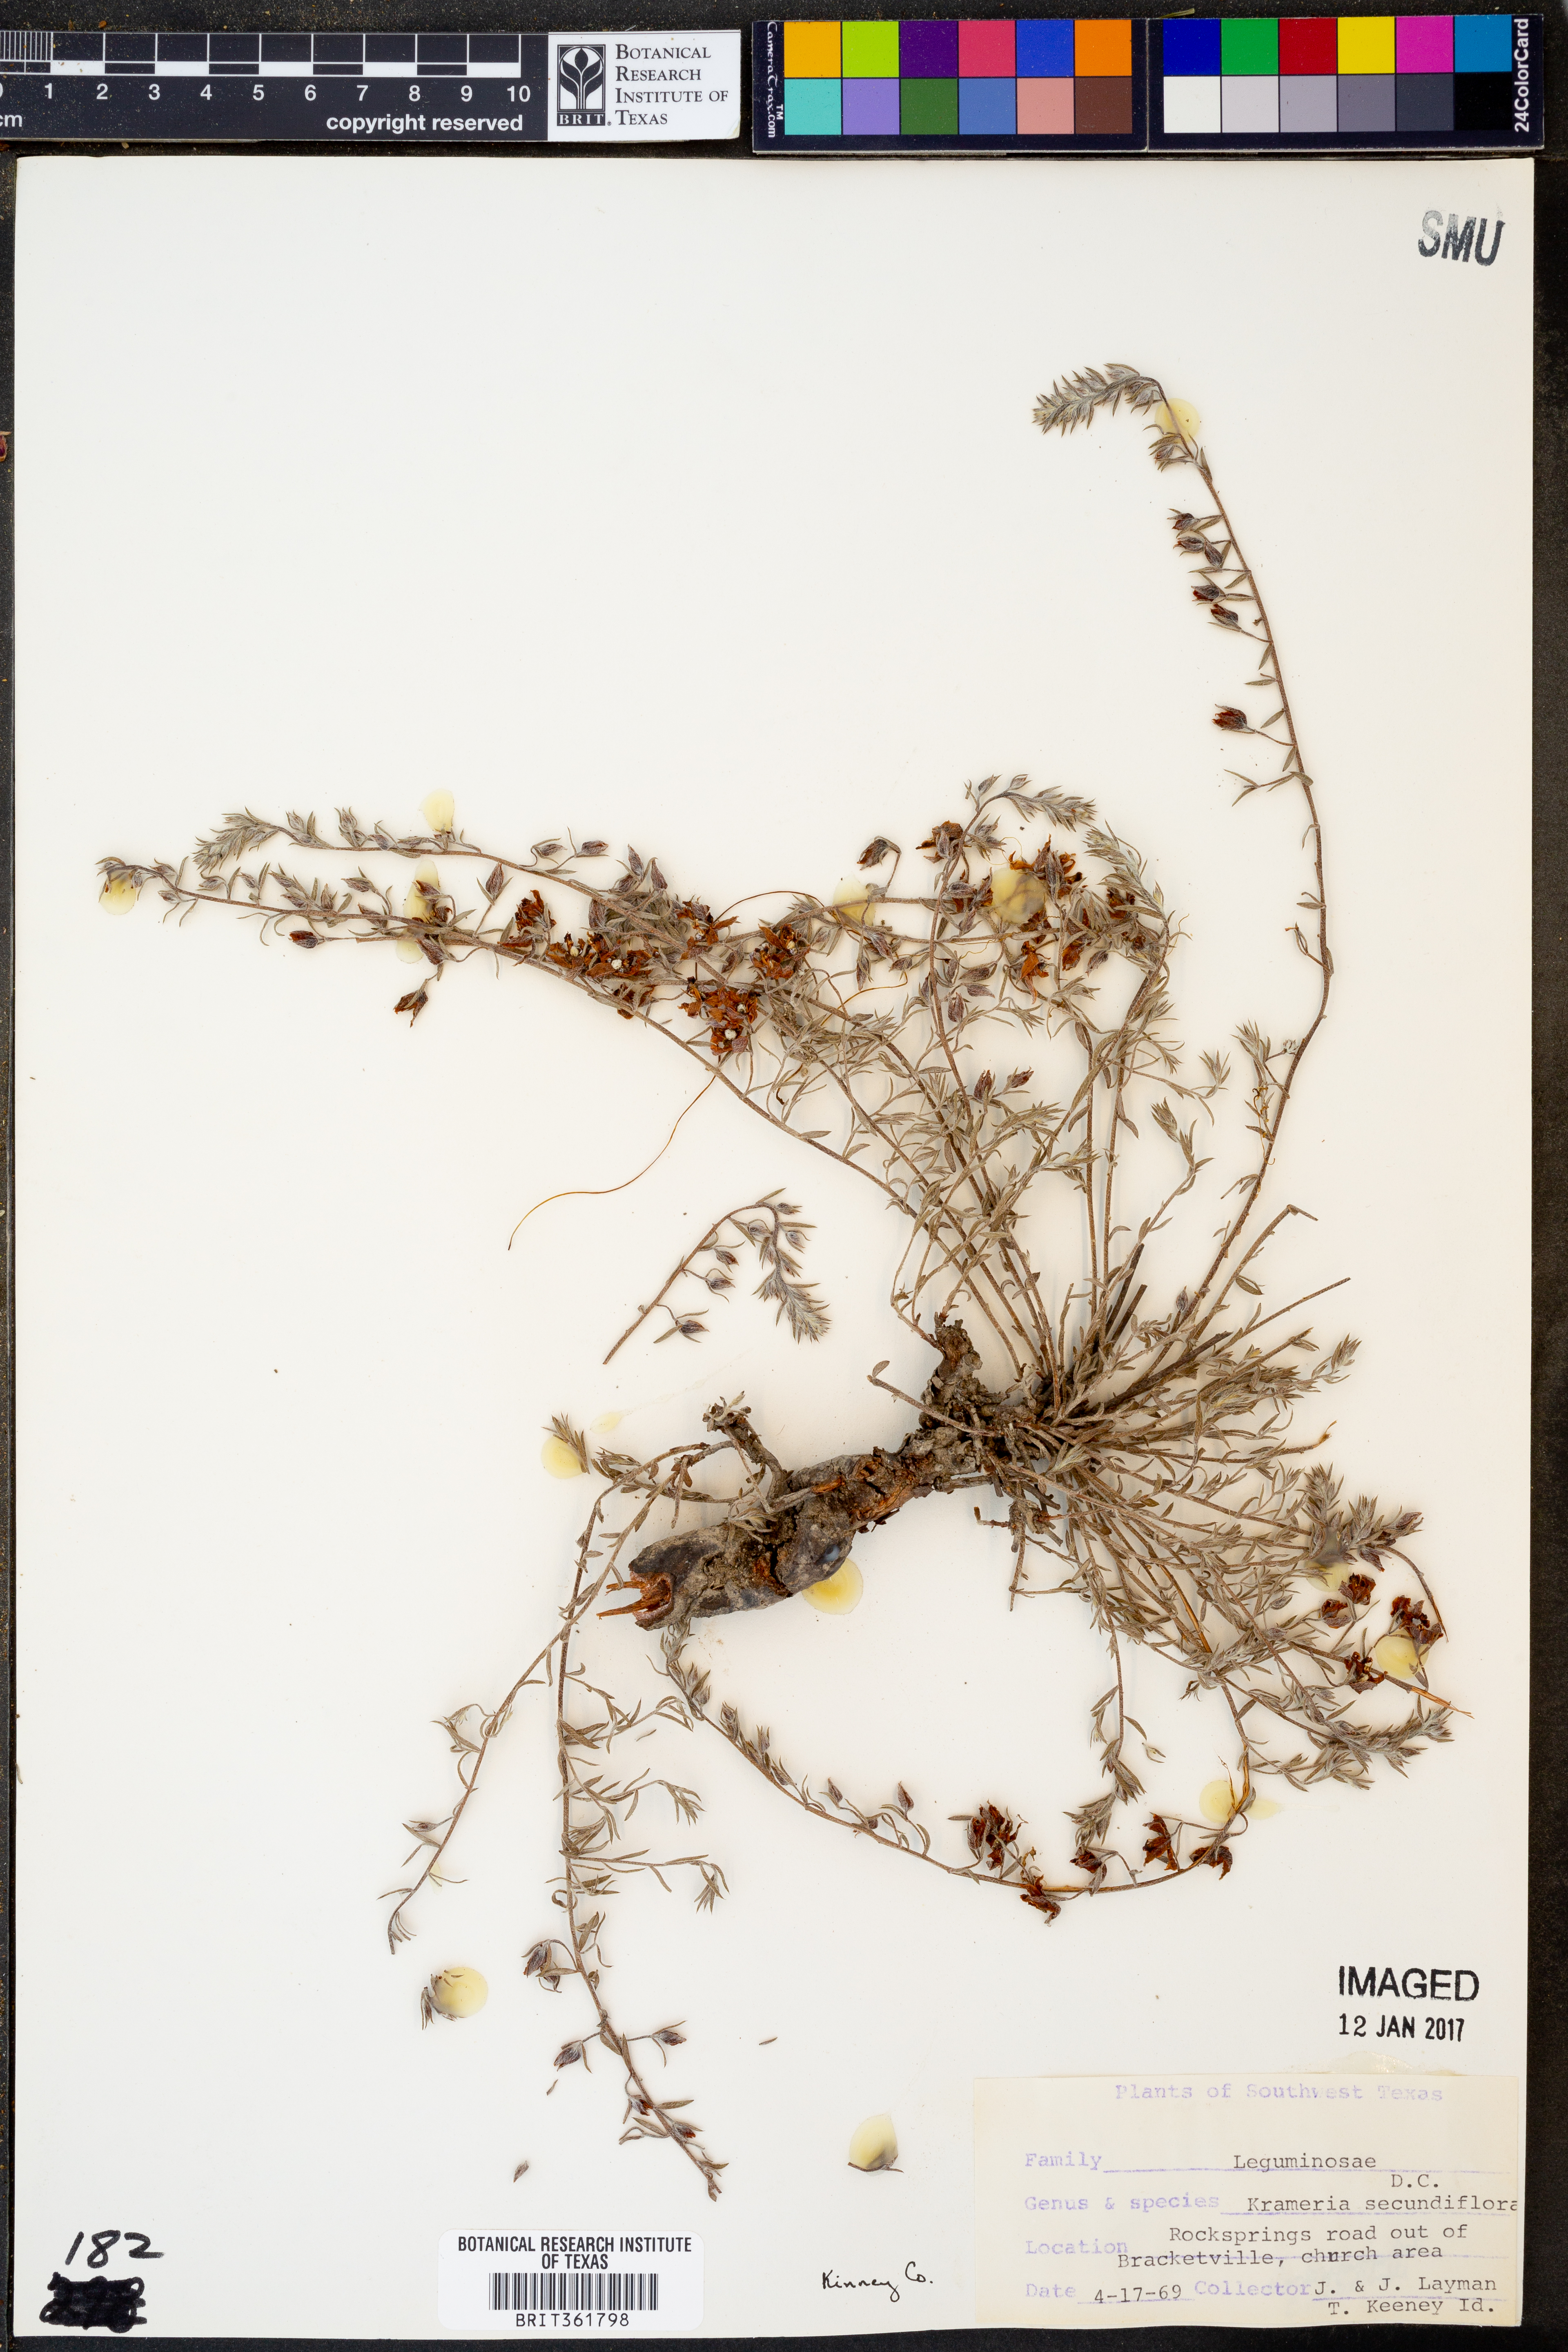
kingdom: Plantae
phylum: Tracheophyta
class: Magnoliopsida
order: Zygophyllales
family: Krameriaceae
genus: Krameria
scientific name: Krameria secundiflora
